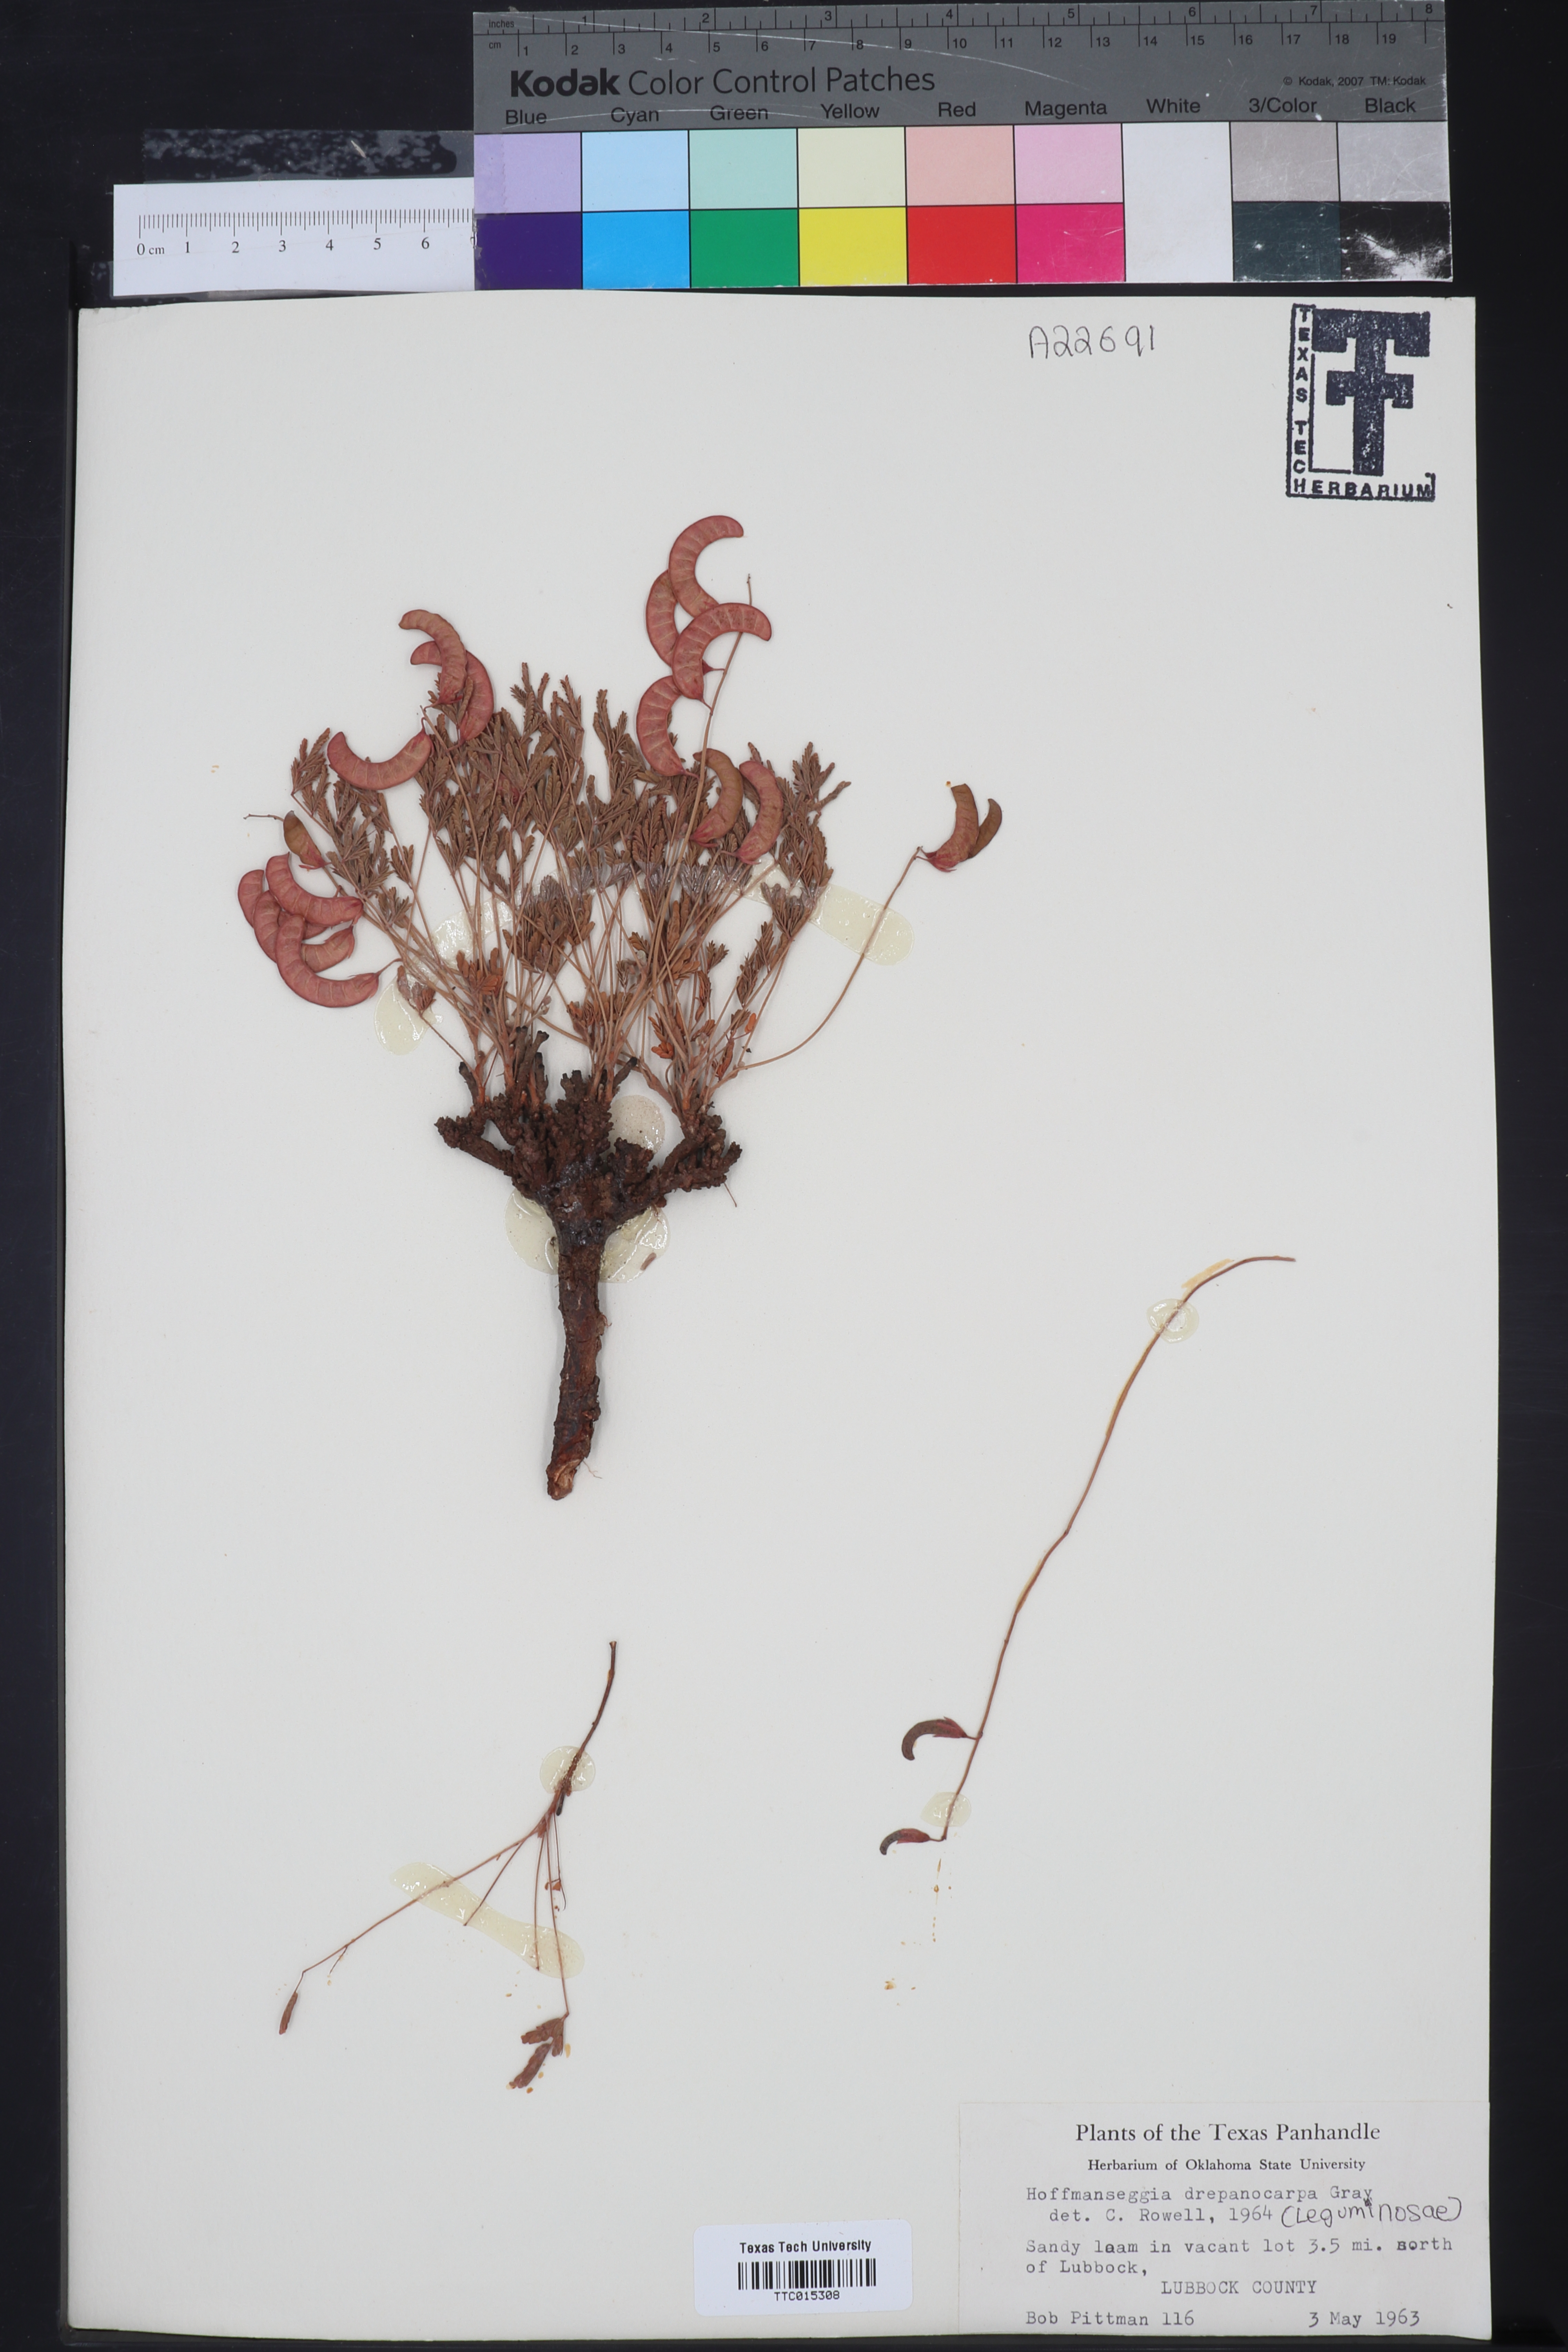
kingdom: Plantae
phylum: Tracheophyta
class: Magnoliopsida
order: Fabales
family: Fabaceae
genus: Hoffmannseggia
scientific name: Hoffmannseggia drepanocarpa
